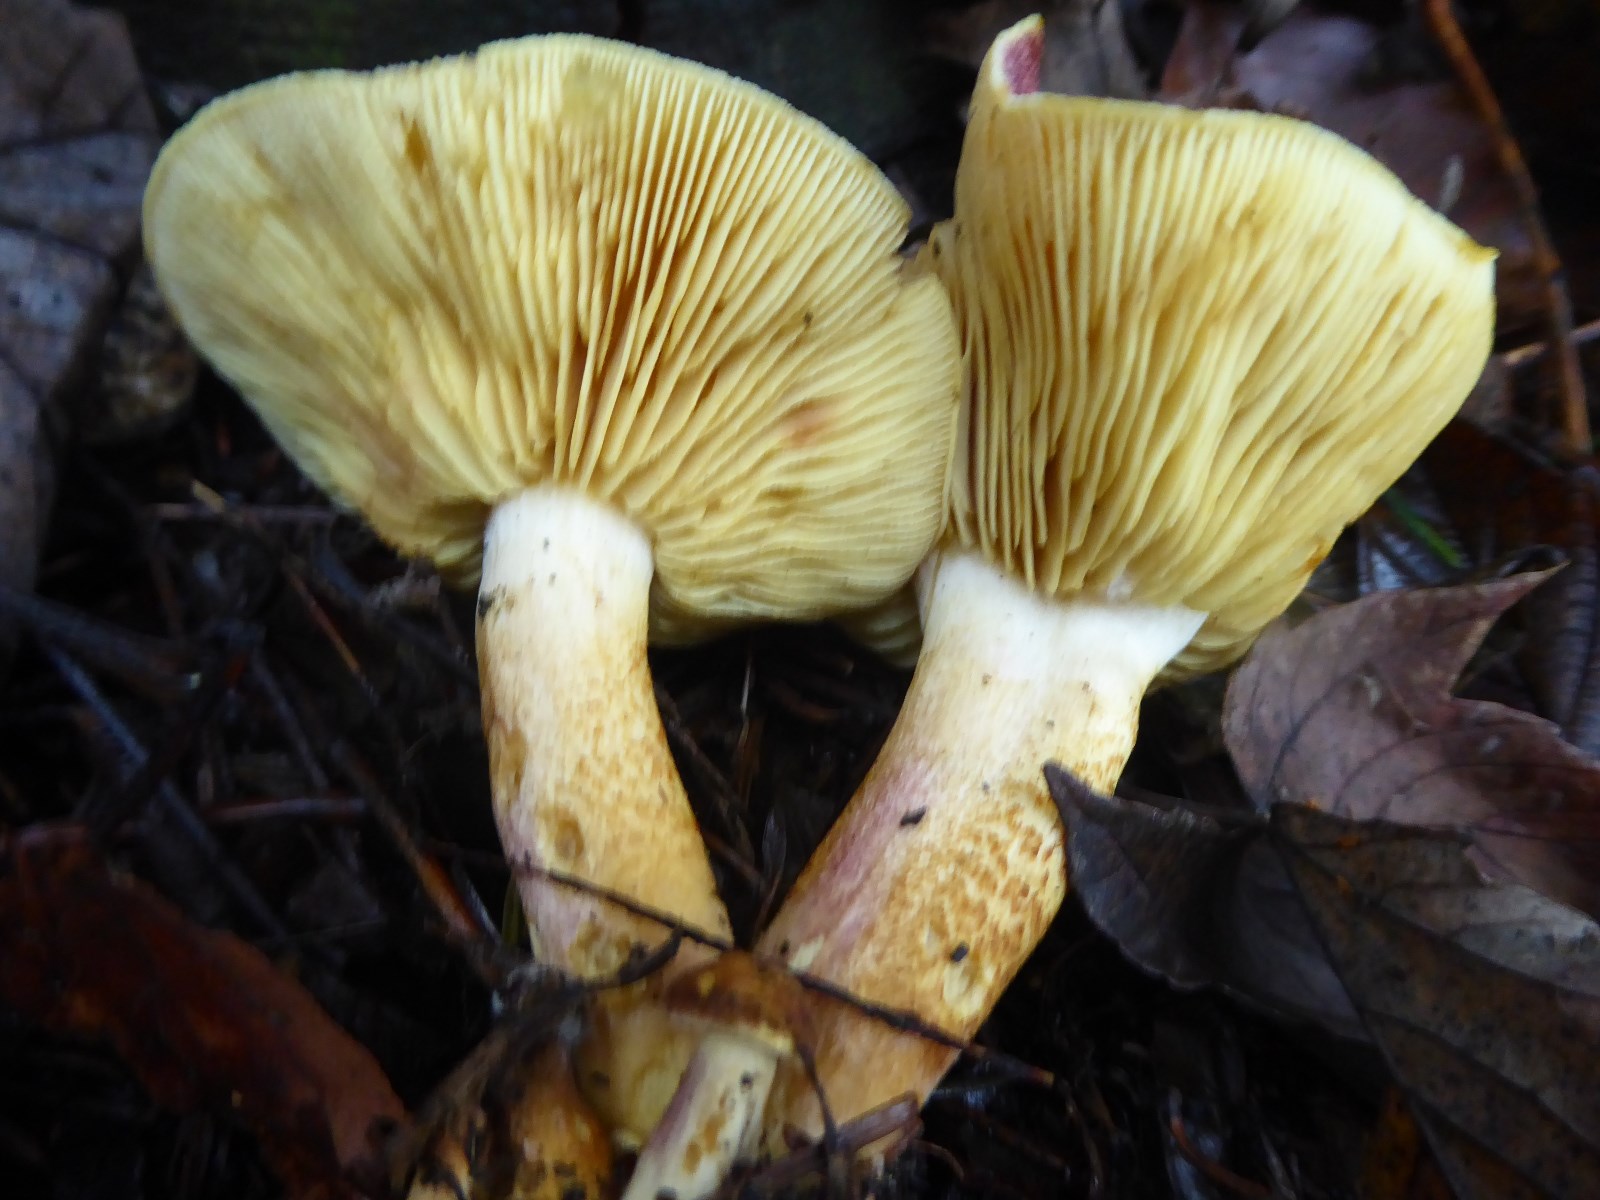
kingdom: Fungi
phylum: Basidiomycota
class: Agaricomycetes
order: Agaricales
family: Tricholomataceae
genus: Tricholomopsis
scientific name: Tricholomopsis rutilans
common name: purpur-væbnerhat
